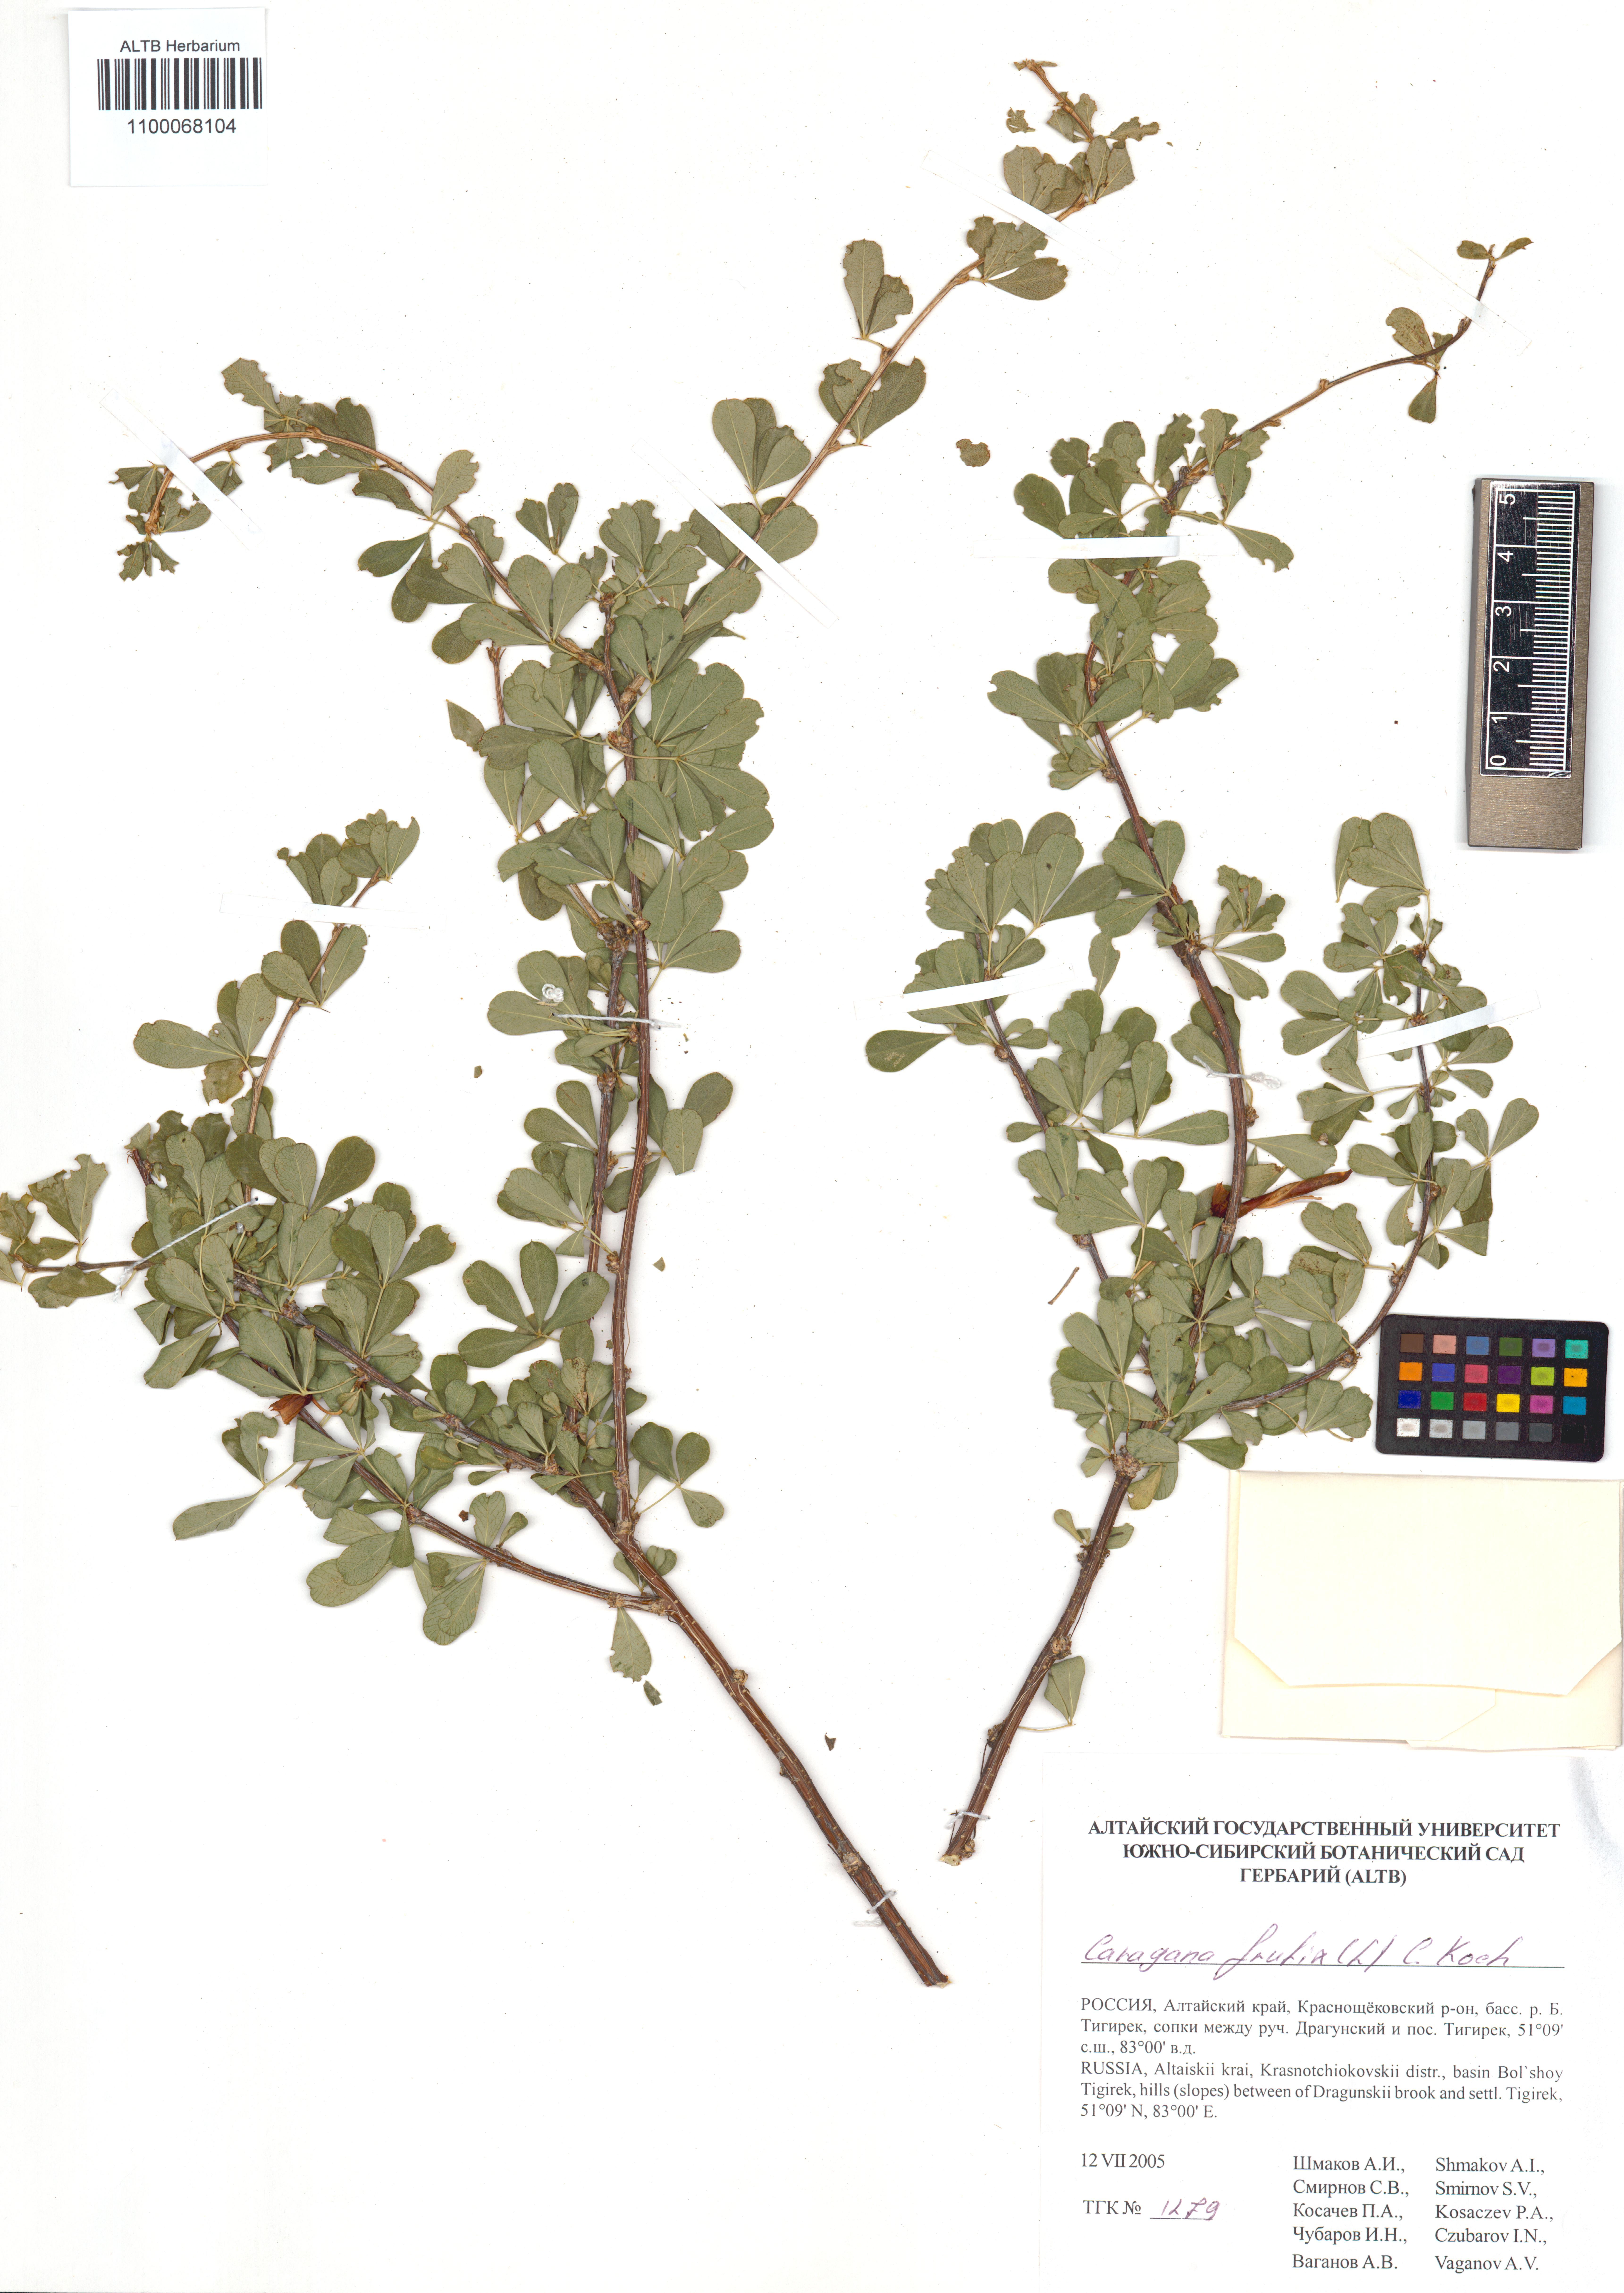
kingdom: Plantae
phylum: Tracheophyta
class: Magnoliopsida
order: Fabales
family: Fabaceae
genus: Caragana
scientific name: Caragana frutex
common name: Russian peashrub
